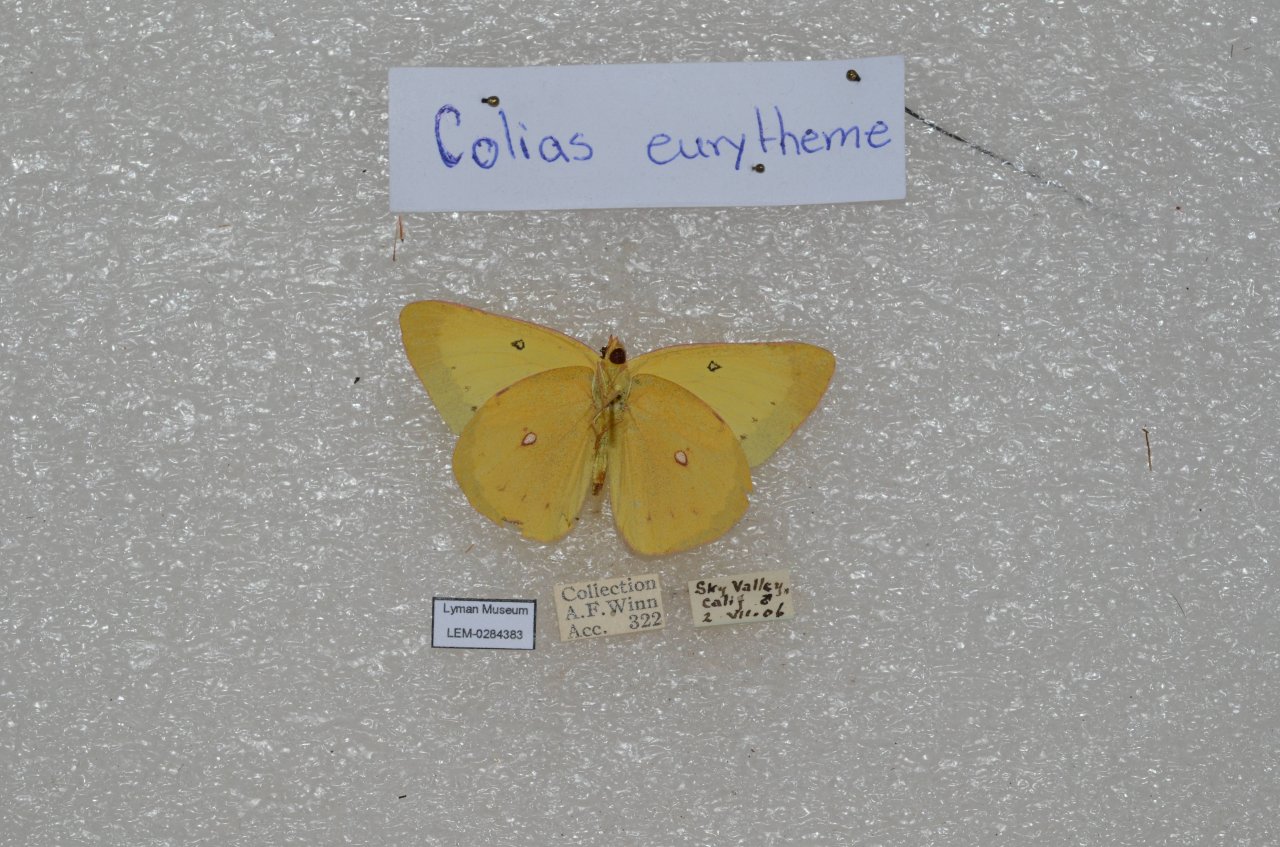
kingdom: Animalia
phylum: Arthropoda
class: Insecta
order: Lepidoptera
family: Pieridae
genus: Colias
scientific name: Colias eurytheme
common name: Orange Sulphur
